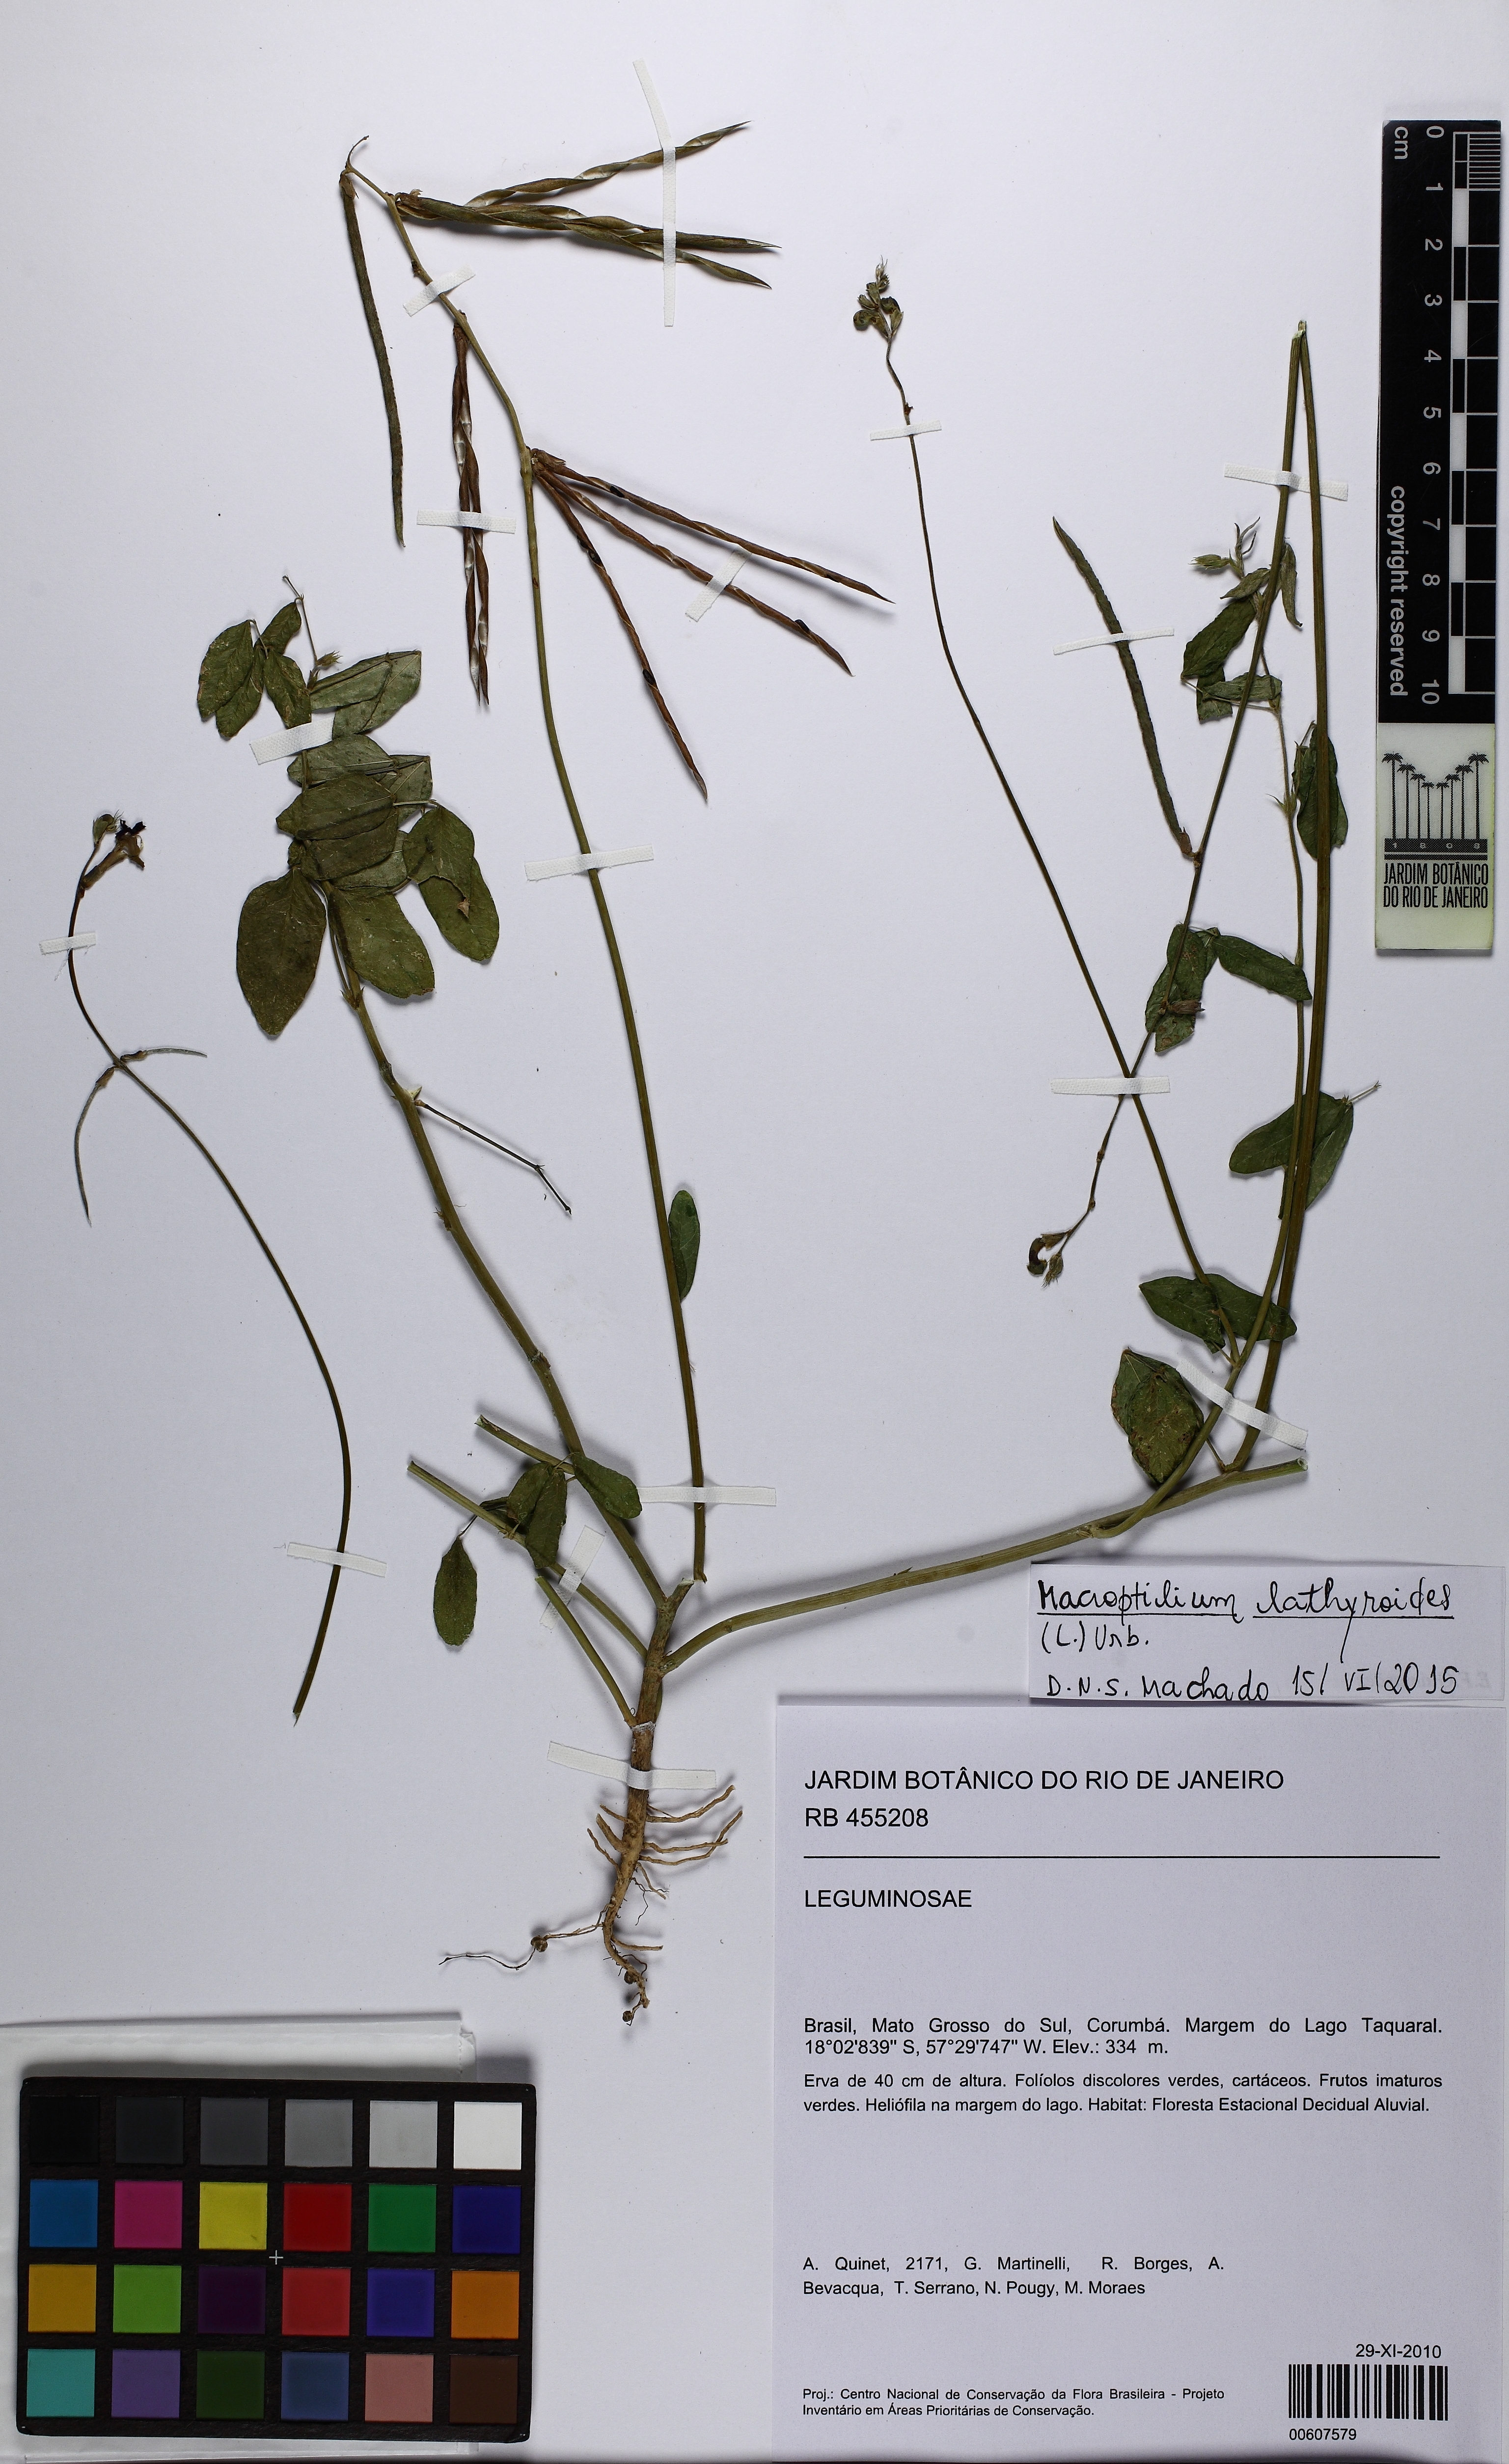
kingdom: Plantae
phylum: Tracheophyta
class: Magnoliopsida
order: Fabales
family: Fabaceae
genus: Macroptilium
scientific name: Macroptilium lathyroides
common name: Wild bushbean
